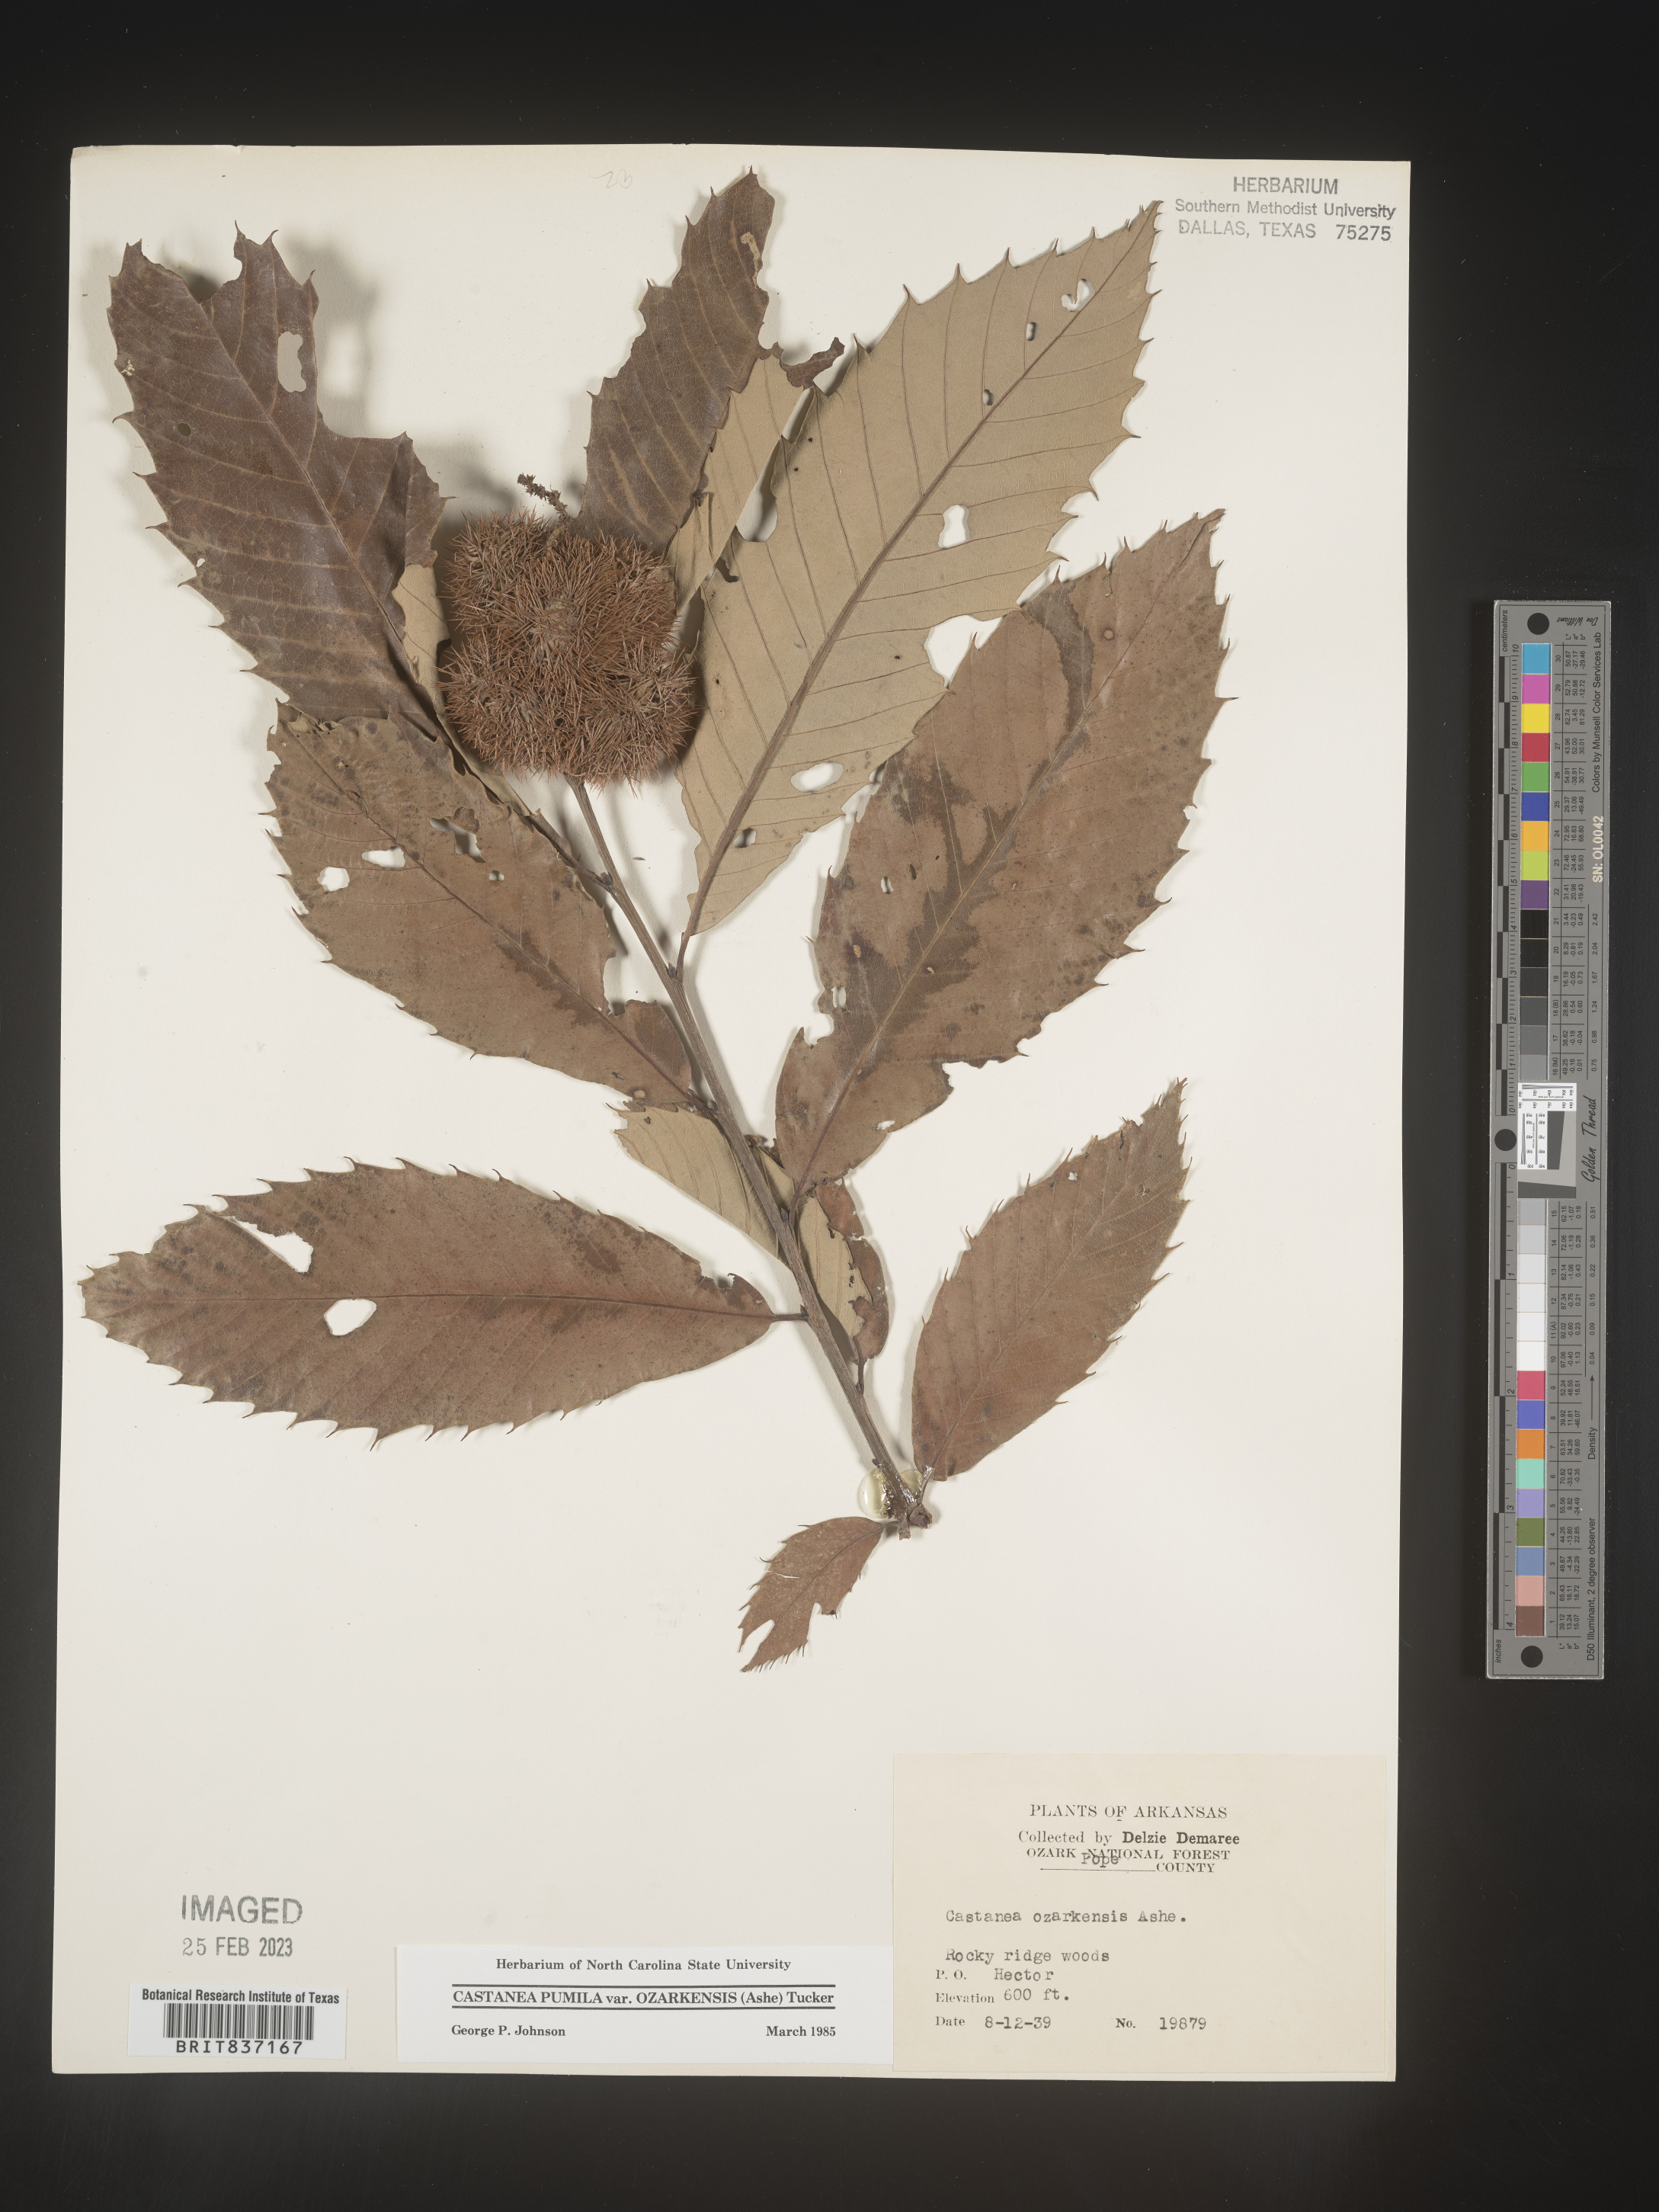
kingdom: Plantae
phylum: Tracheophyta
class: Magnoliopsida
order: Fagales
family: Fagaceae
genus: Castanea
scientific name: Castanea pumila
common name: Chinkapin
